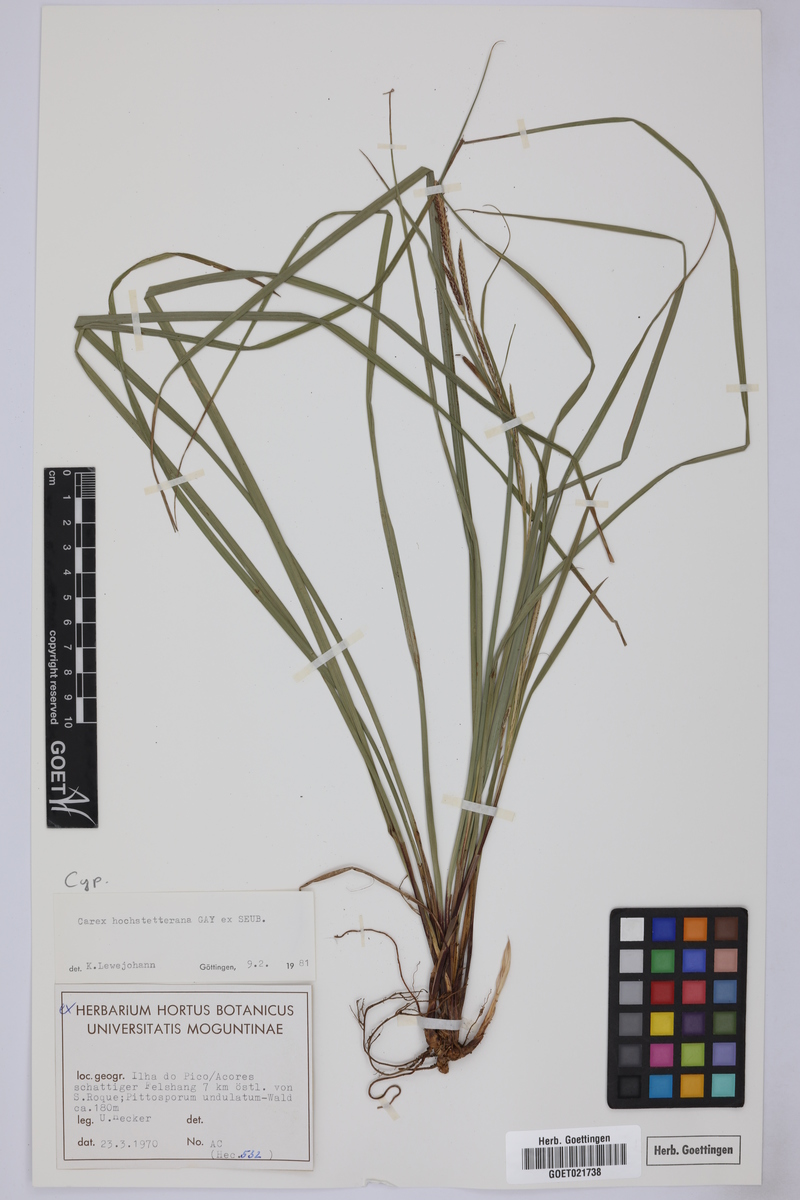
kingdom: Plantae
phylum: Tracheophyta
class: Liliopsida
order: Poales
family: Cyperaceae
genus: Carex
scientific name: Carex hochstetteriana
